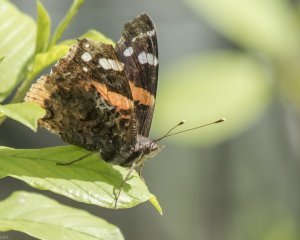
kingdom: Animalia
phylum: Arthropoda
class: Insecta
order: Lepidoptera
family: Nymphalidae
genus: Vanessa
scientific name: Vanessa atalanta
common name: Red Admiral
